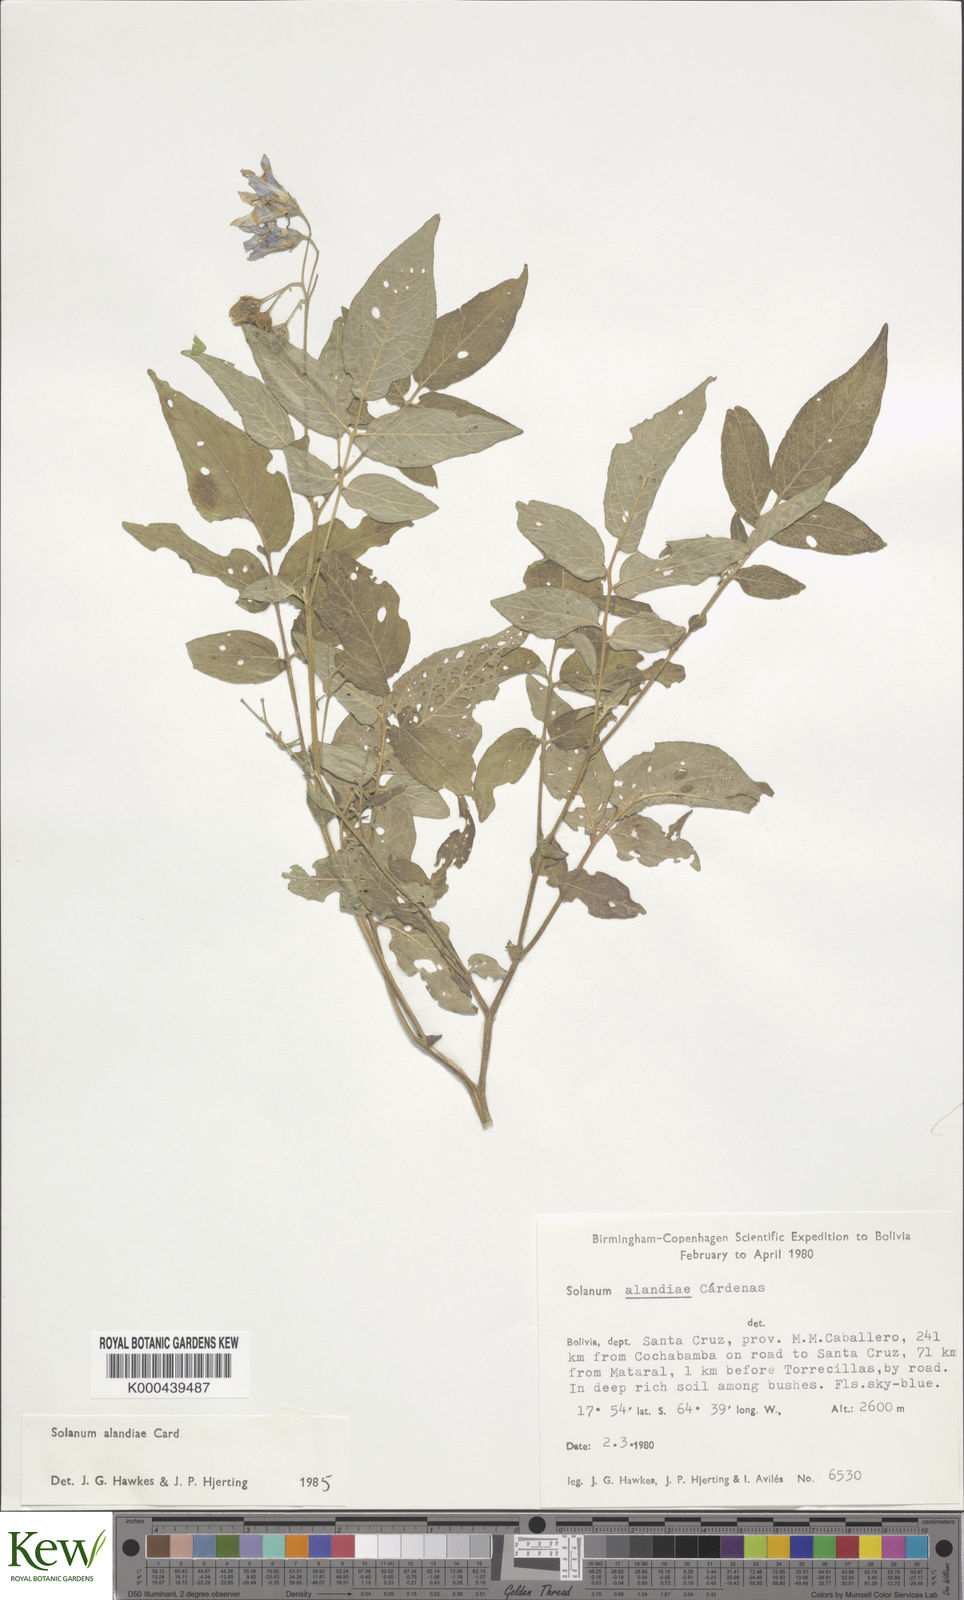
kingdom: Plantae
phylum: Tracheophyta
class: Magnoliopsida
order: Solanales
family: Solanaceae
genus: Solanum
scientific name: Solanum brevicaule
